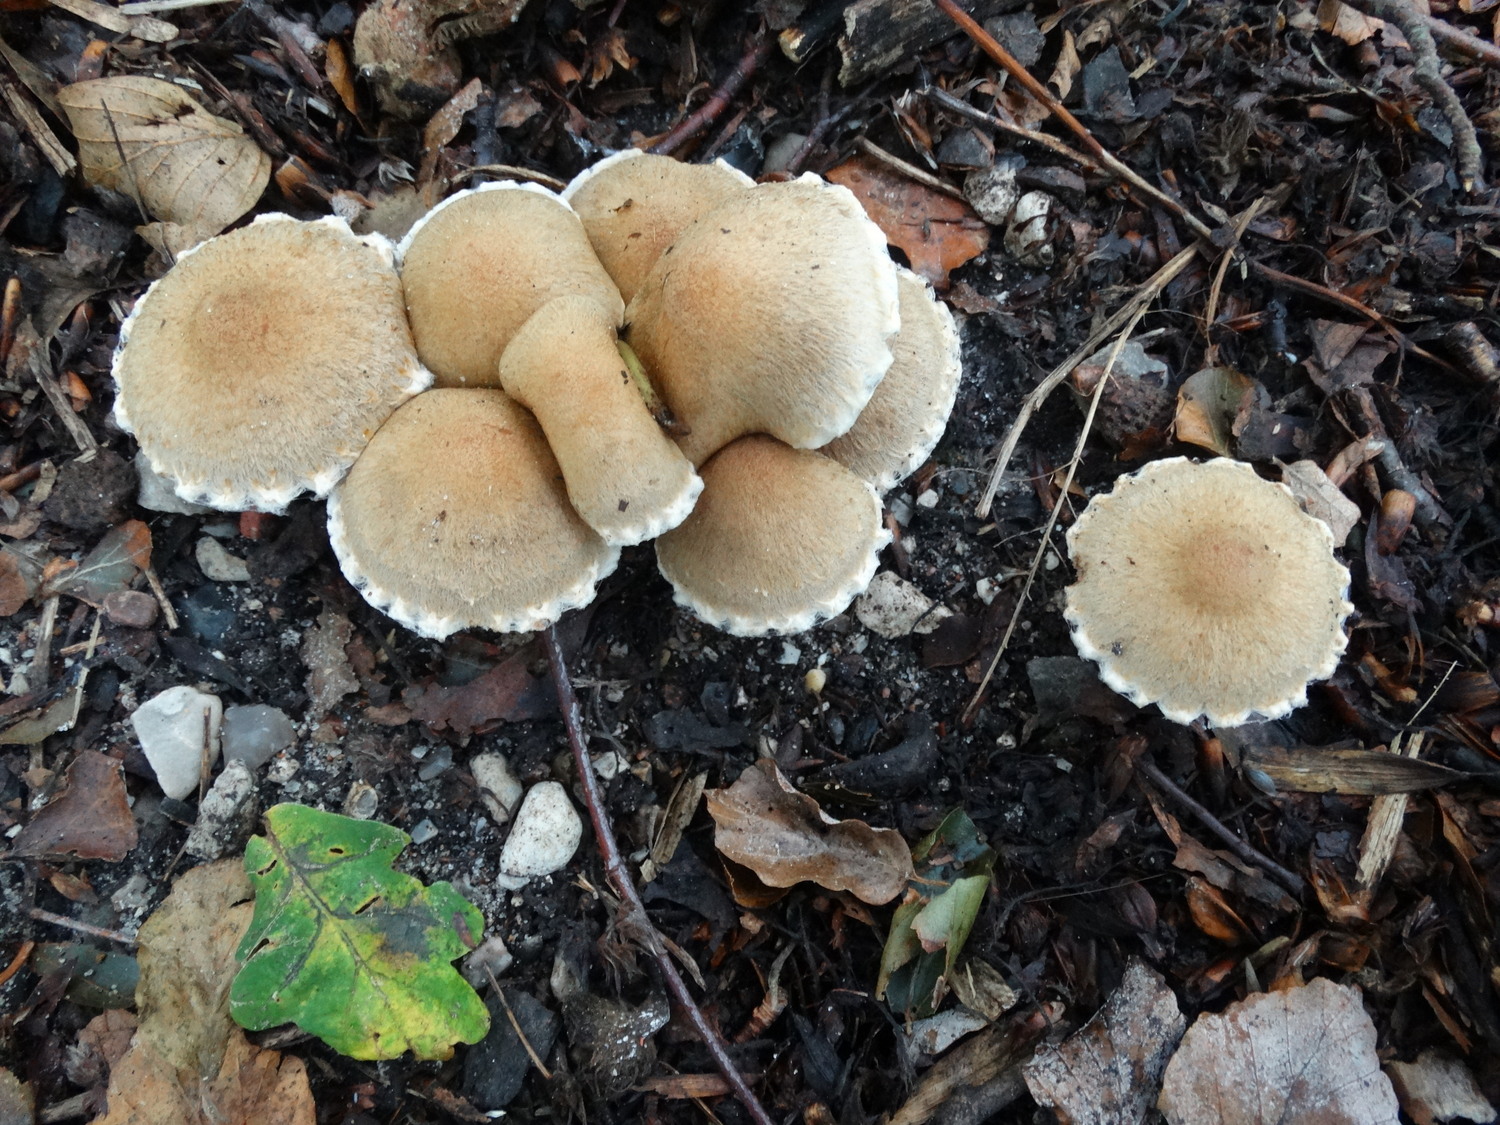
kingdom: Fungi
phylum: Basidiomycota
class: Agaricomycetes
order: Agaricales
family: Psathyrellaceae
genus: Lacrymaria
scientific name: Lacrymaria lacrymabunda
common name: grædende mørkhat
